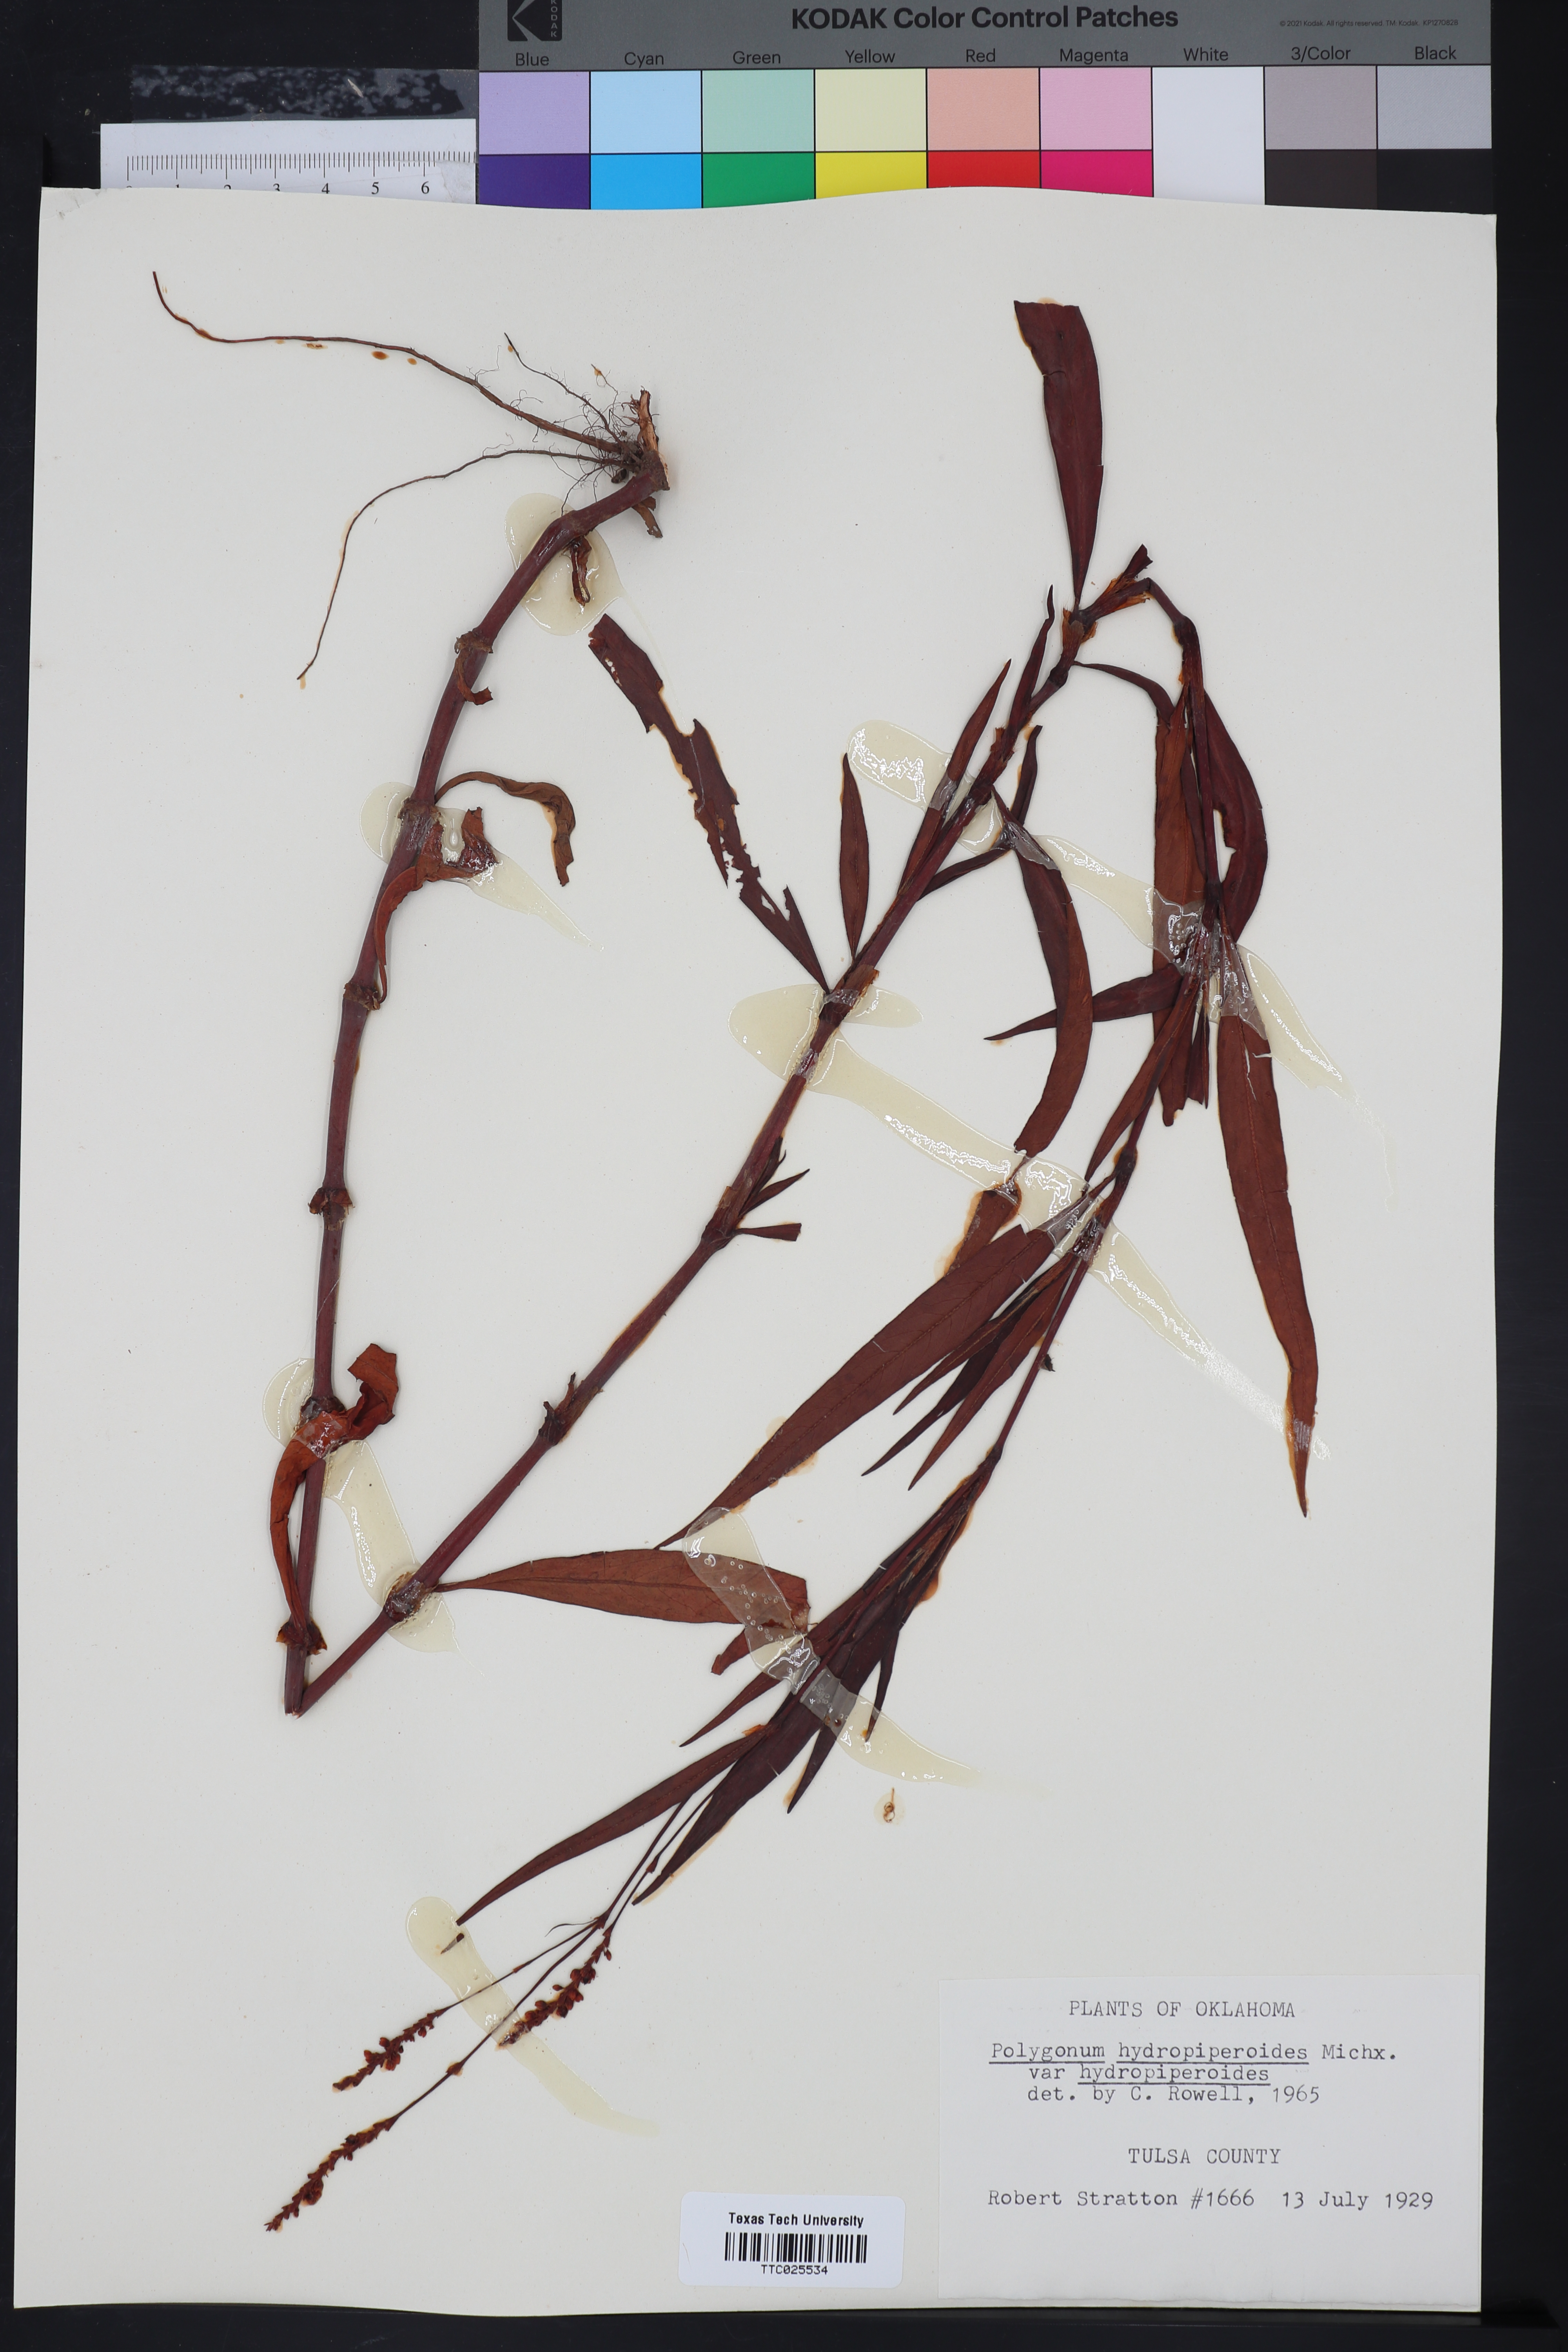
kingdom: Plantae
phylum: Tracheophyta
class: Magnoliopsida
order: Caryophyllales
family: Polygonaceae
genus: Persicaria
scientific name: Persicaria hydropiperoides
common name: Swamp smartweed
